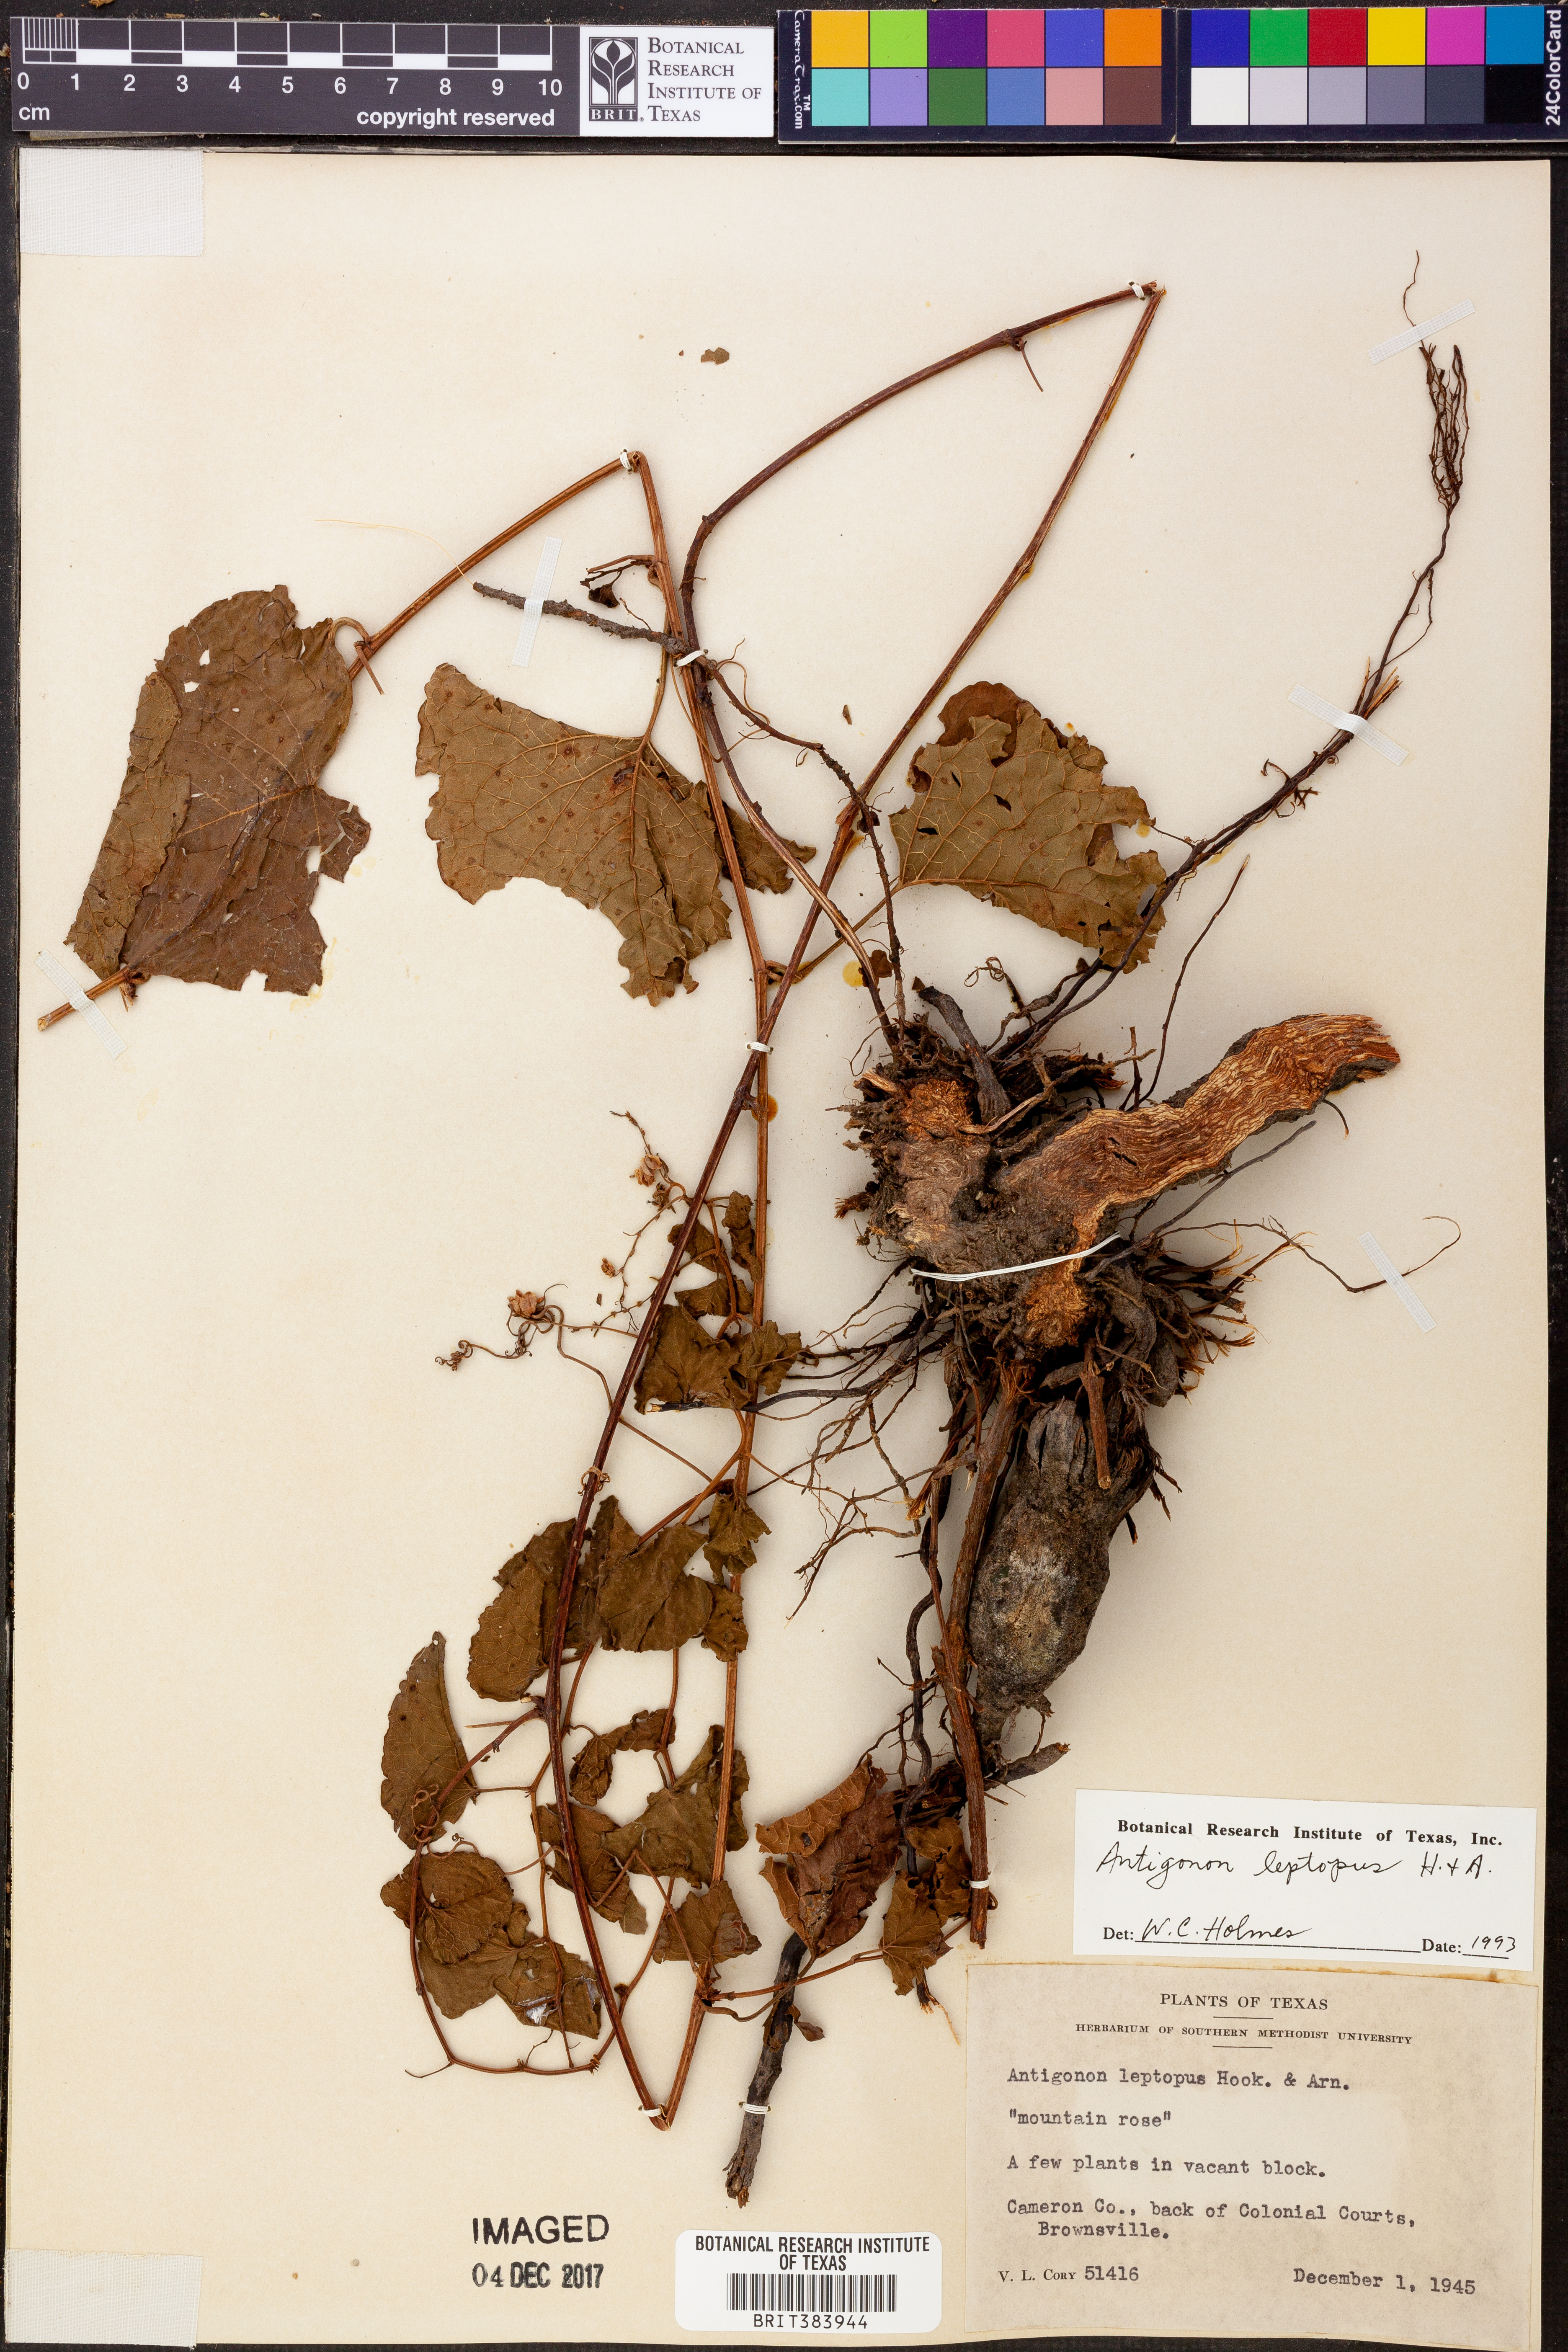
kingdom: Plantae
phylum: Tracheophyta
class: Magnoliopsida
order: Caryophyllales
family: Polygonaceae
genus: Antigonon
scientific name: Antigonon leptopus
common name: Coral vine
